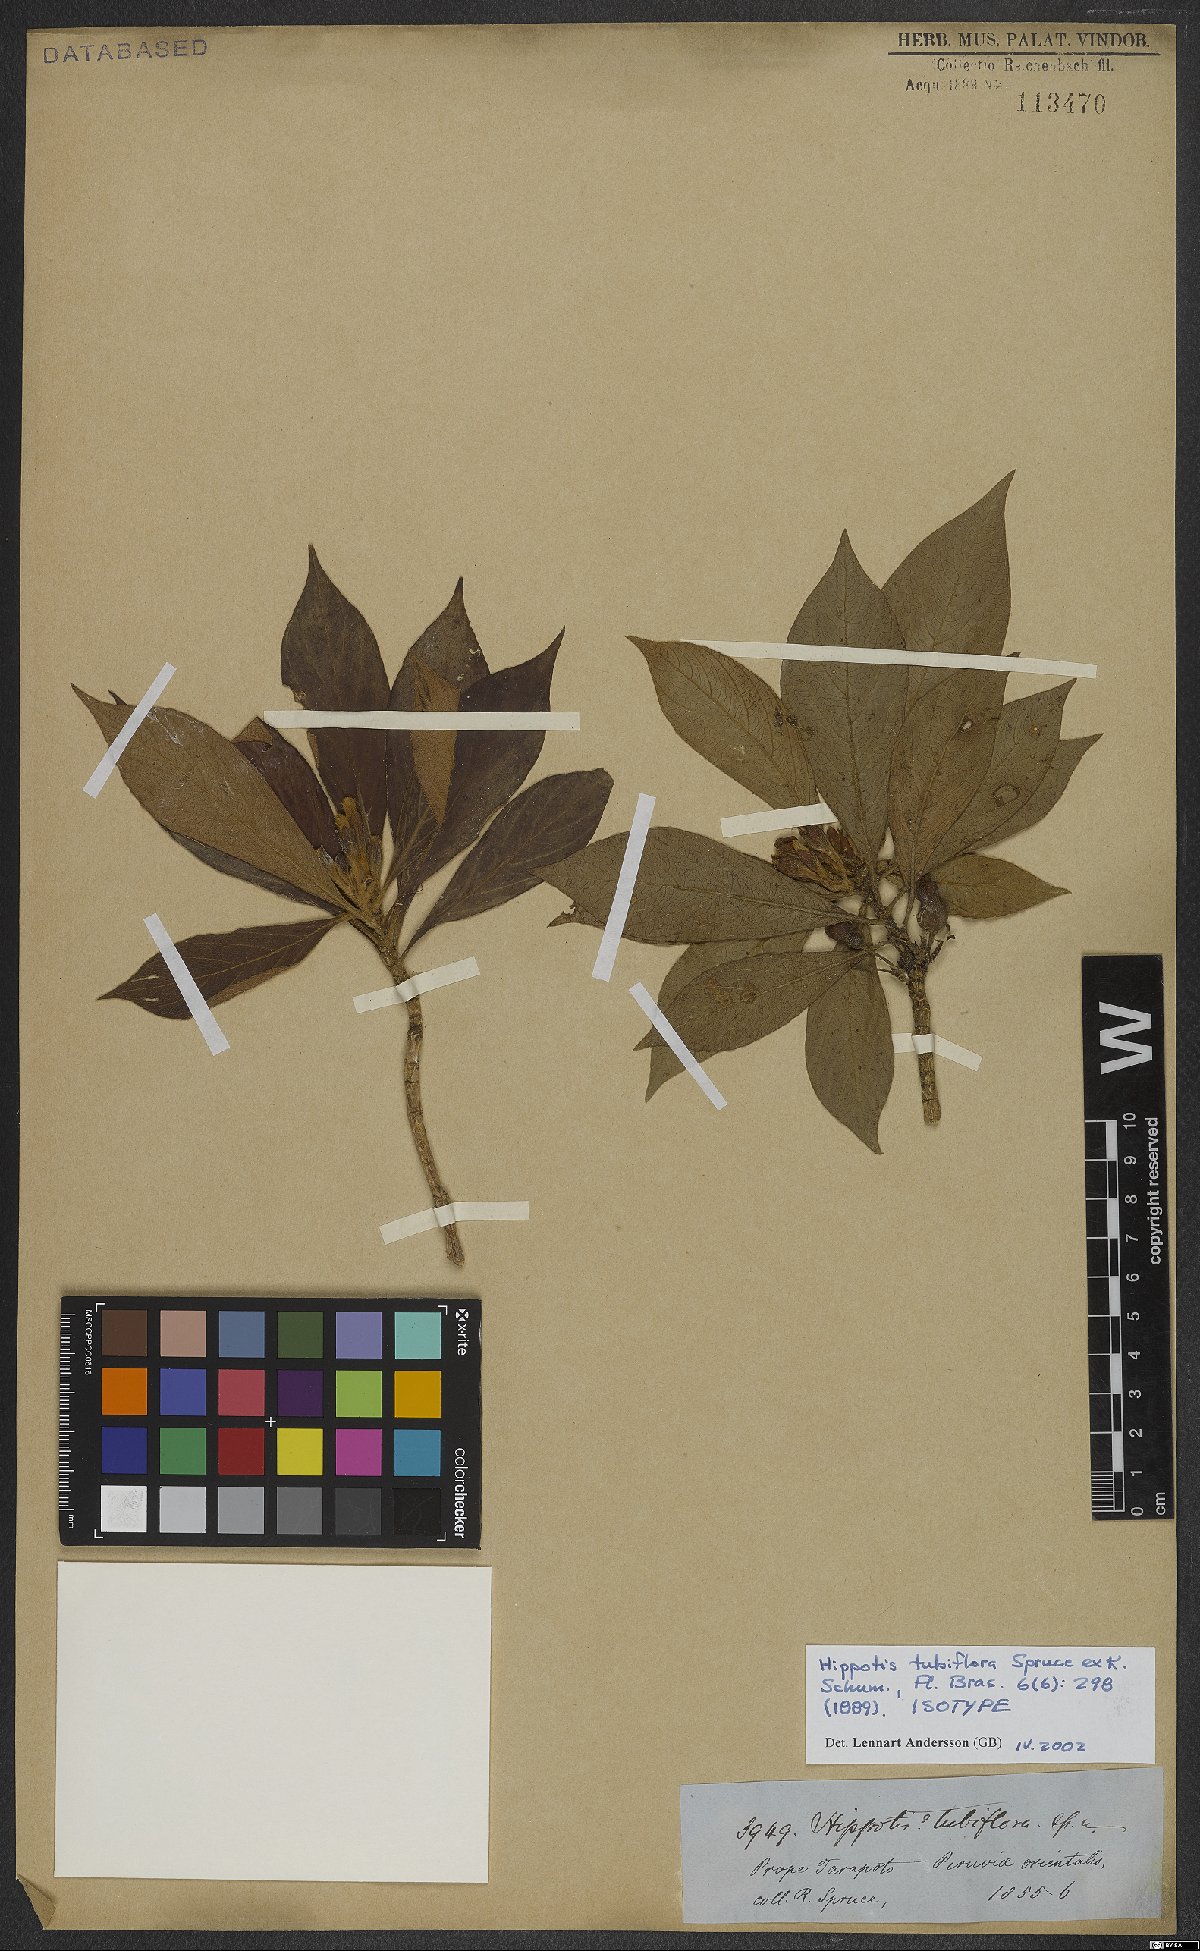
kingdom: Plantae
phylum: Tracheophyta
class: Magnoliopsida
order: Gentianales
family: Rubiaceae
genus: Hippotis
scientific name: Hippotis tubiflora
